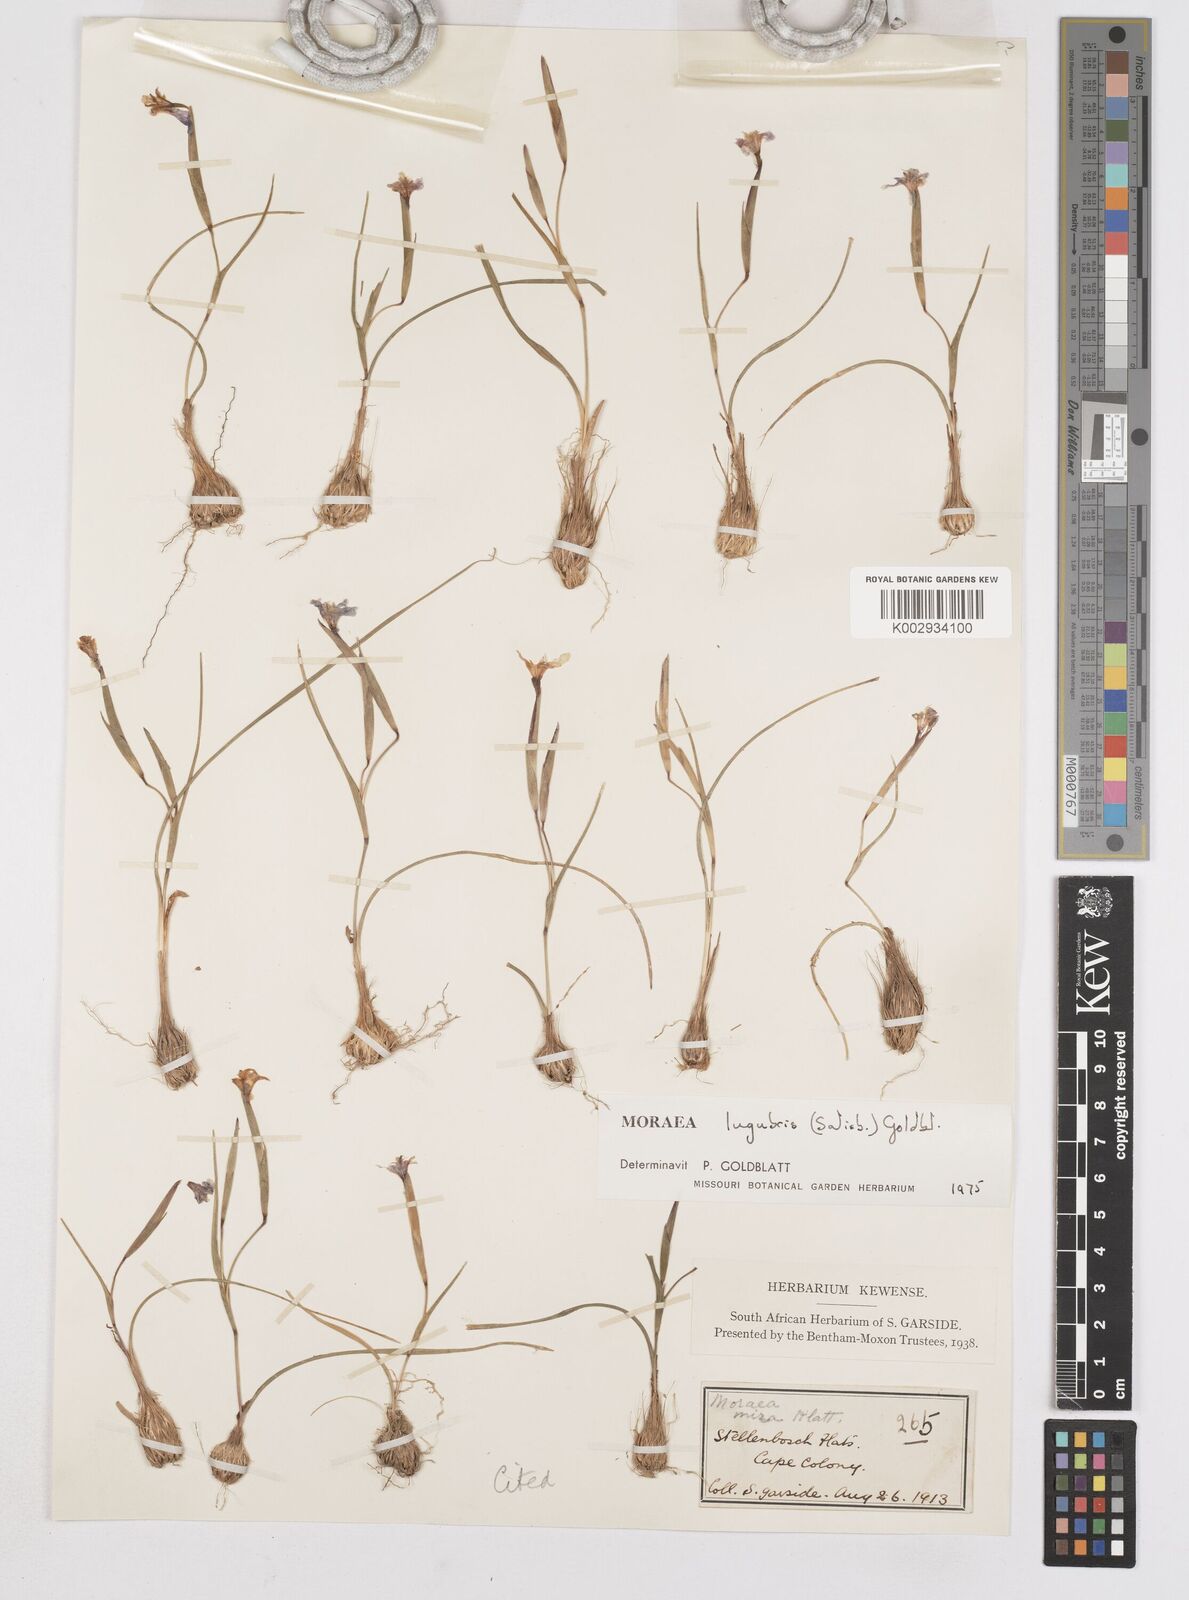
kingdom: Plantae
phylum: Tracheophyta
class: Liliopsida
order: Asparagales
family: Iridaceae
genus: Moraea
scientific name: Moraea lugubris
